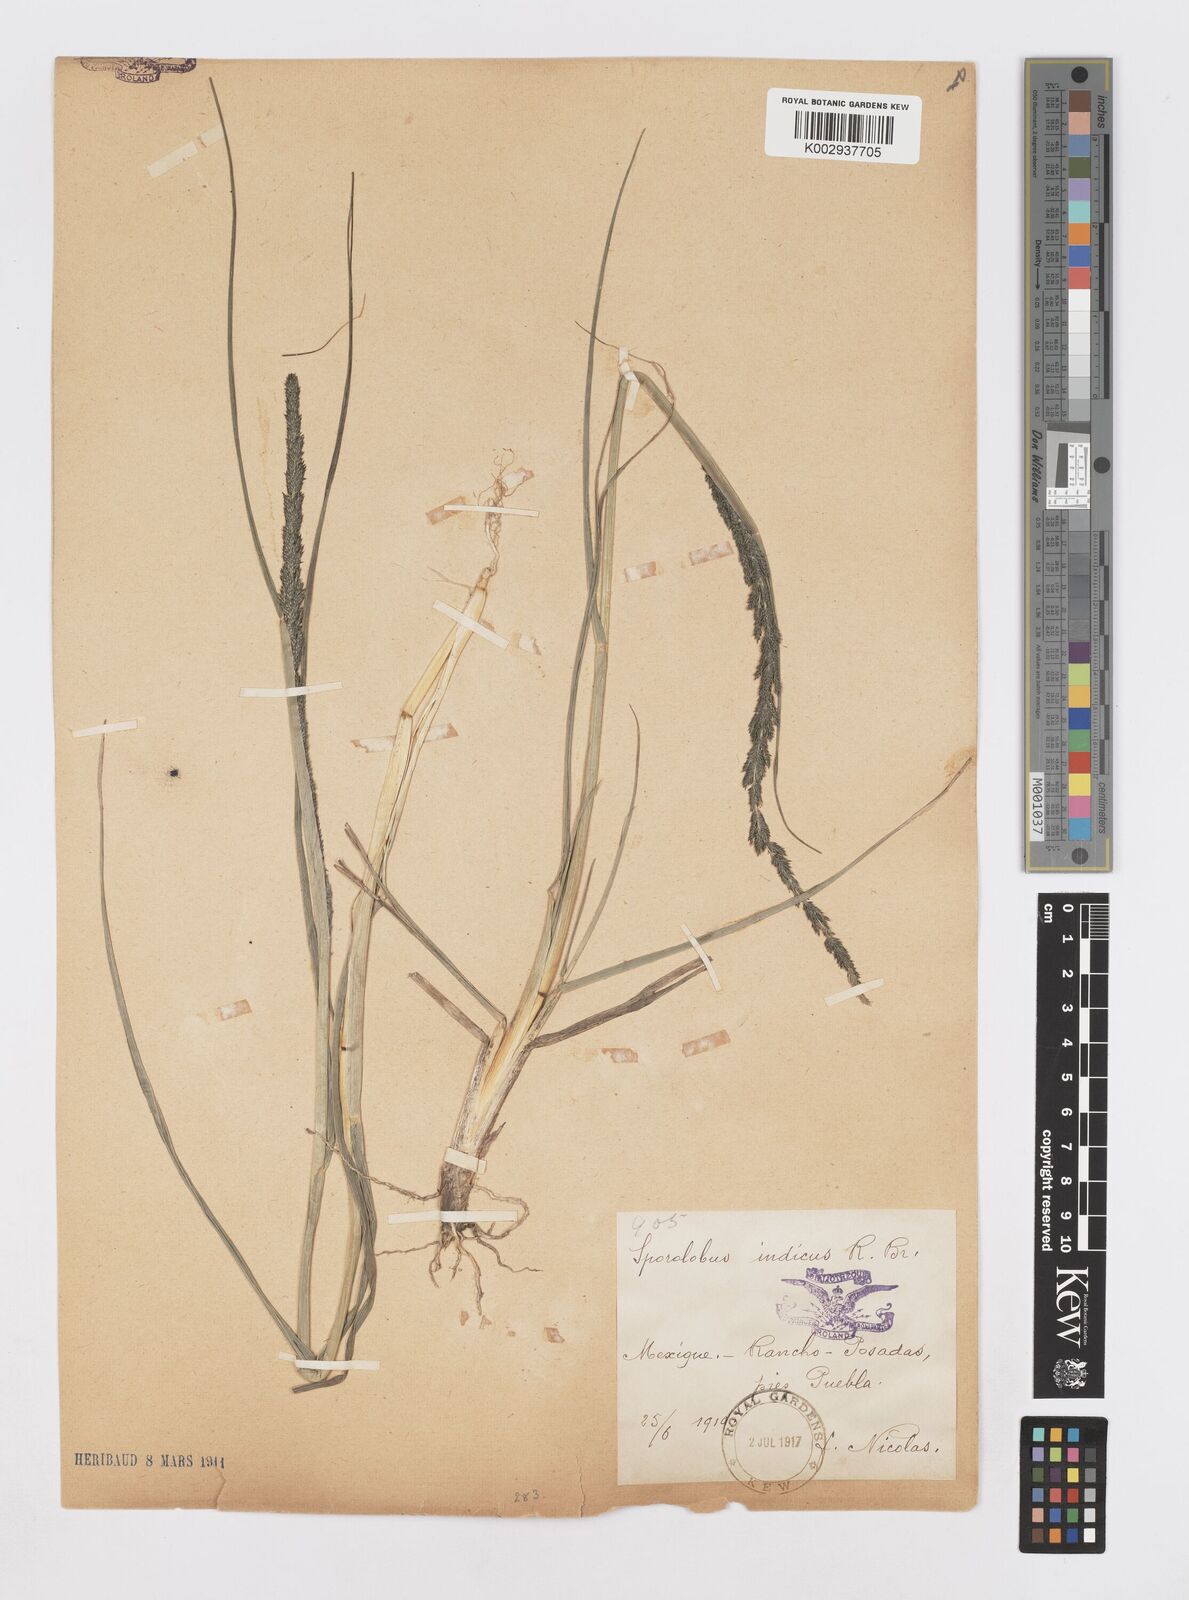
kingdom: Plantae
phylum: Tracheophyta
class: Liliopsida
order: Poales
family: Poaceae
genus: Sporobolus
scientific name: Sporobolus junceus
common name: Lizard grass
